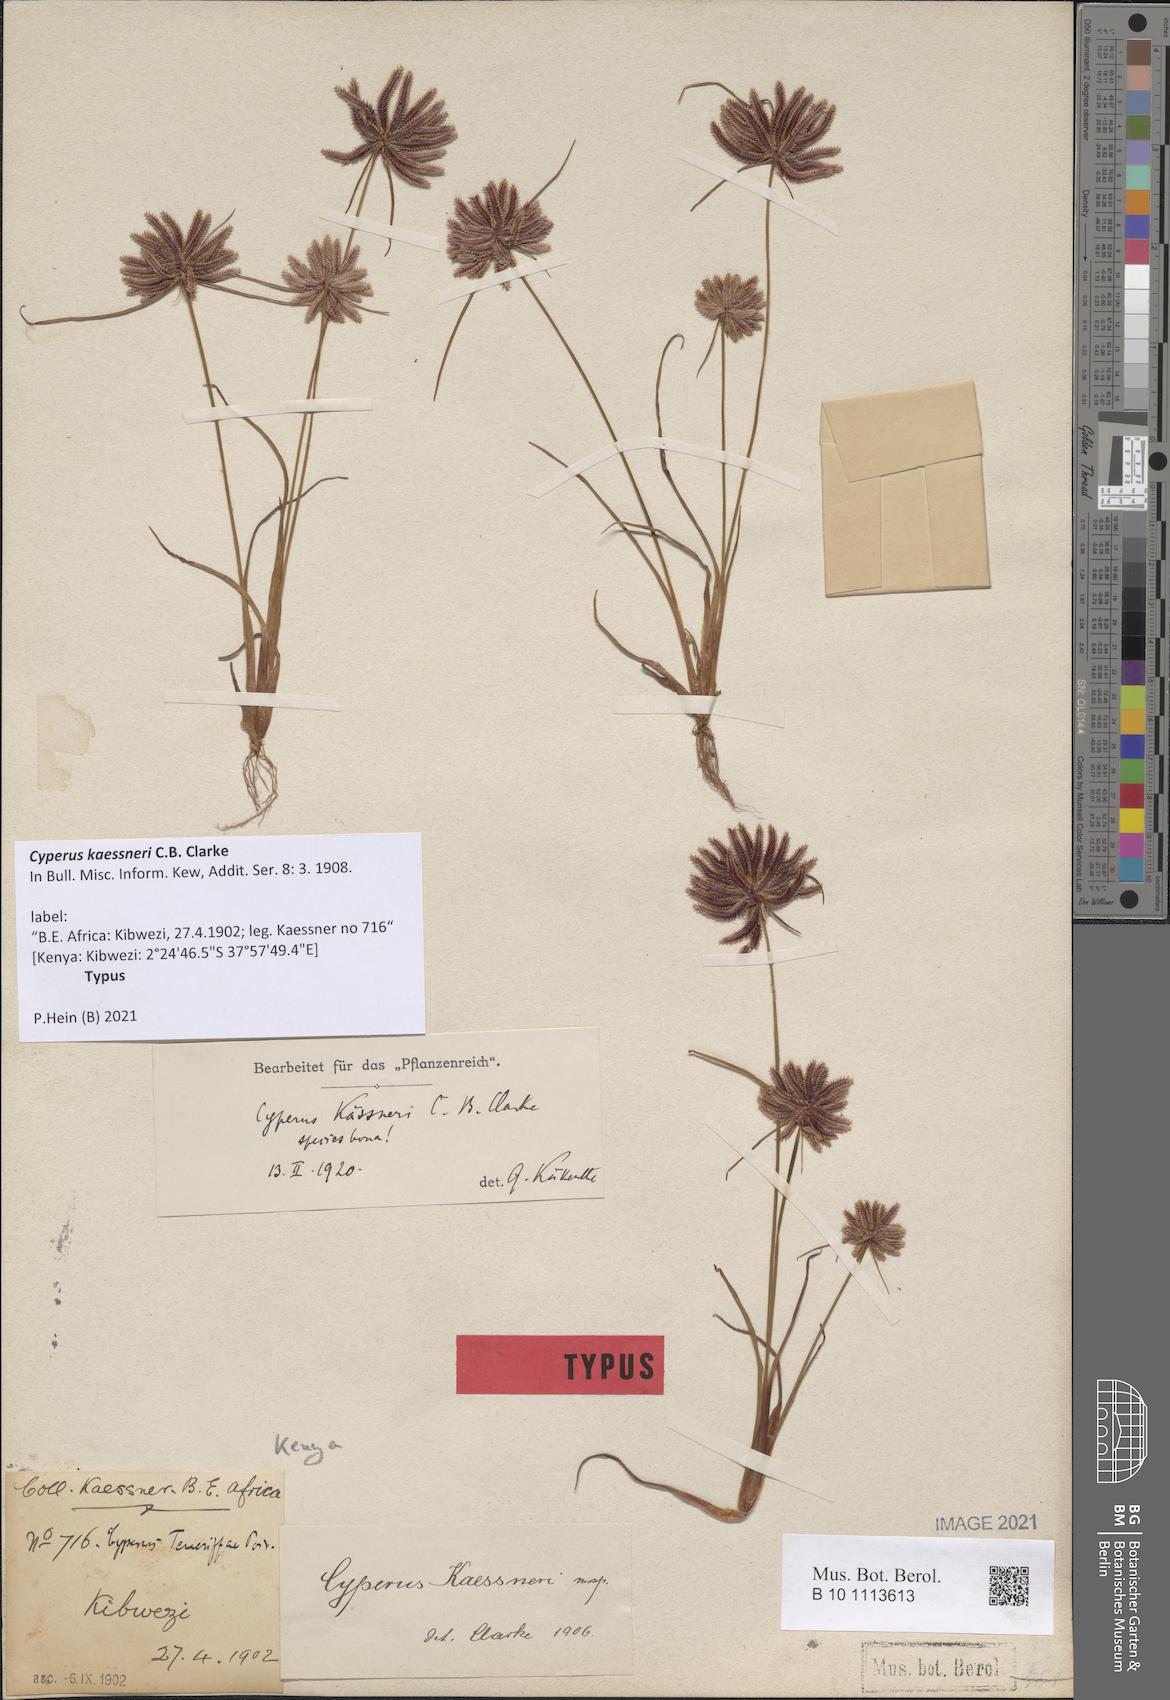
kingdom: Plantae
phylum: Tracheophyta
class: Liliopsida
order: Poales
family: Cyperaceae
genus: Cyperus
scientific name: Cyperus kaessneri
